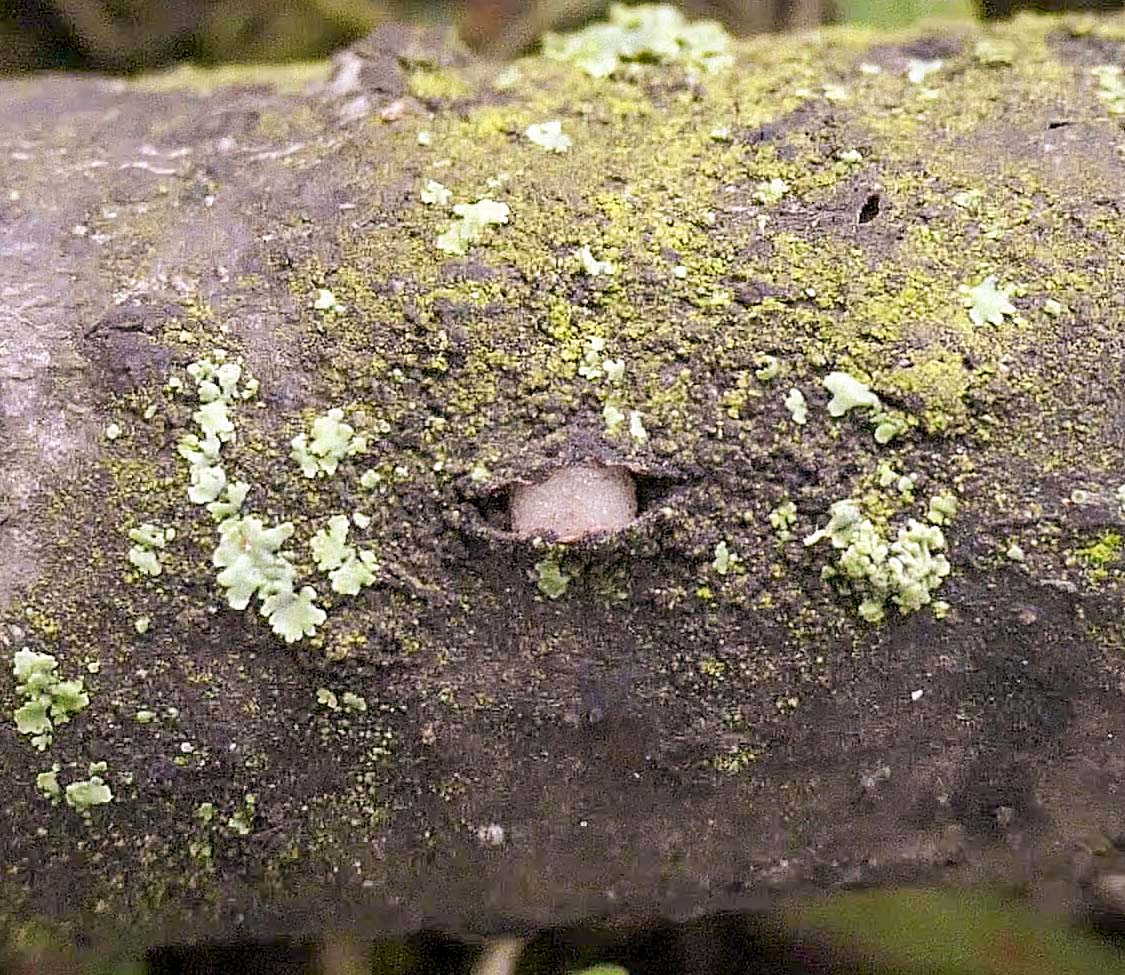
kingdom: Fungi
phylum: Basidiomycota
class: Pucciniomycetes
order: Platygloeales
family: Platygloeaceae
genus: Platygloea
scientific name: Platygloea disciformis
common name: linde-slimklat
